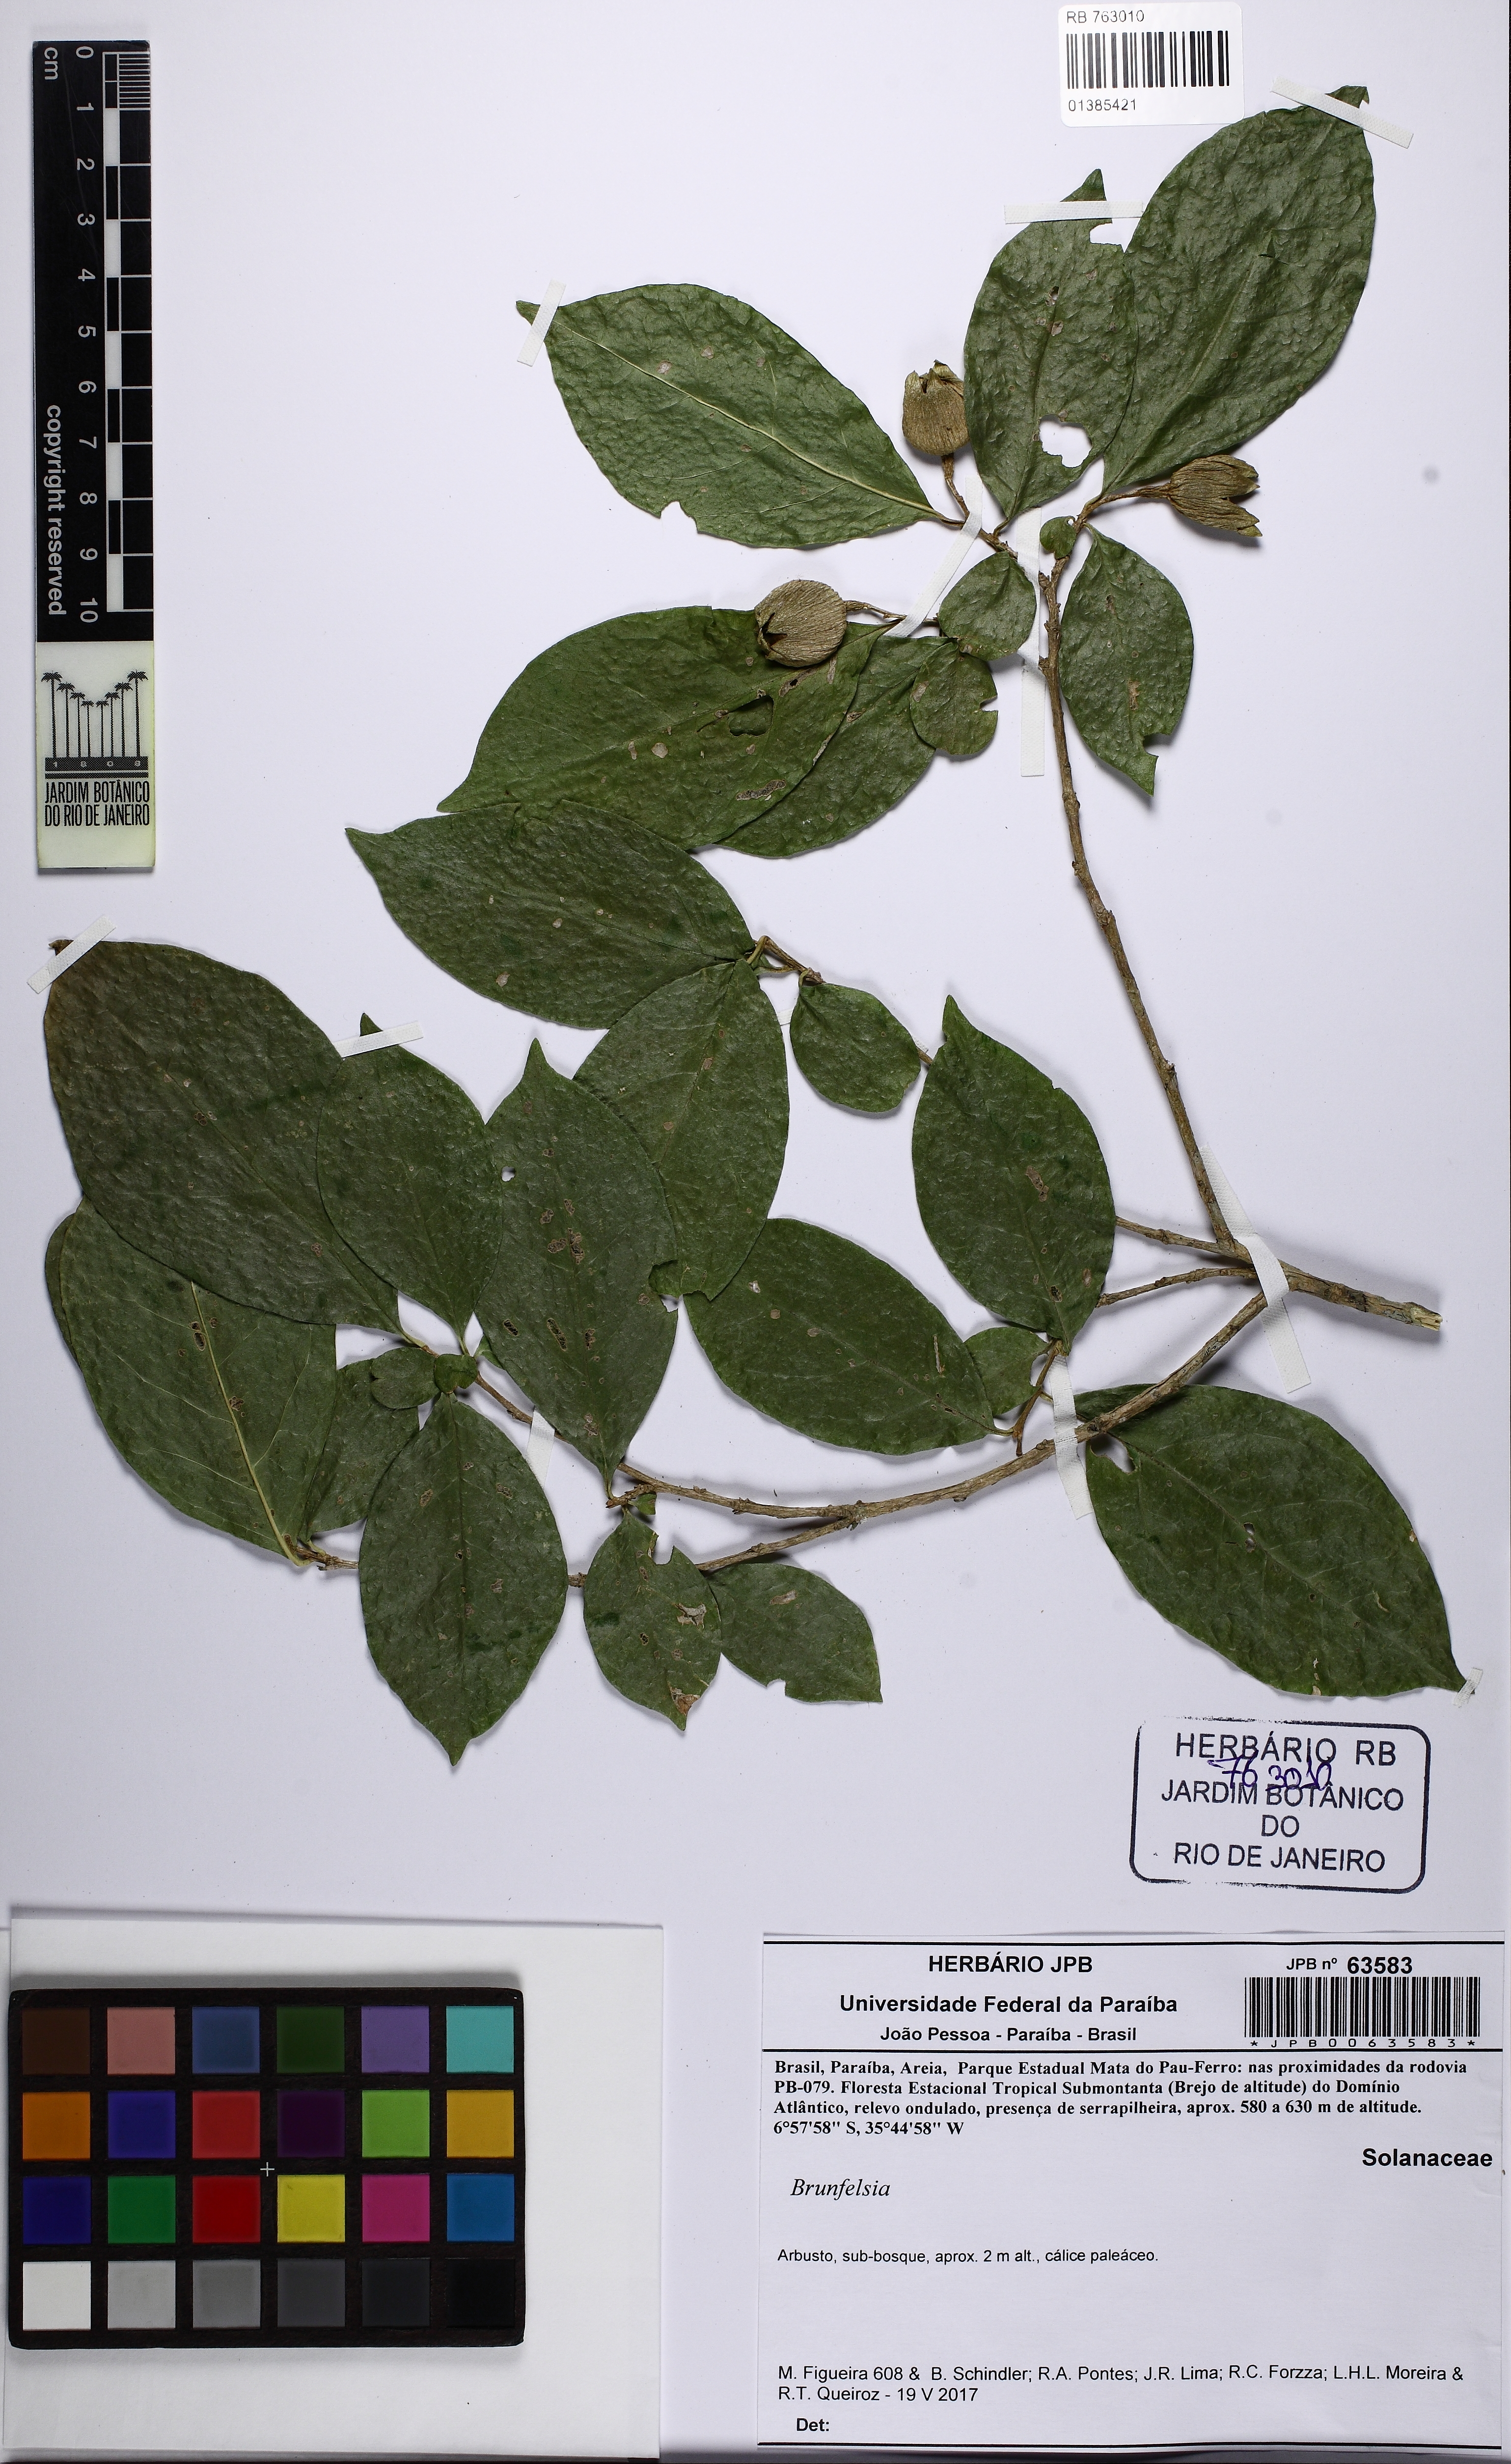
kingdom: Plantae
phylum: Tracheophyta
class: Magnoliopsida
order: Solanales
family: Solanaceae
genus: Brunfelsia
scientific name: Brunfelsia
